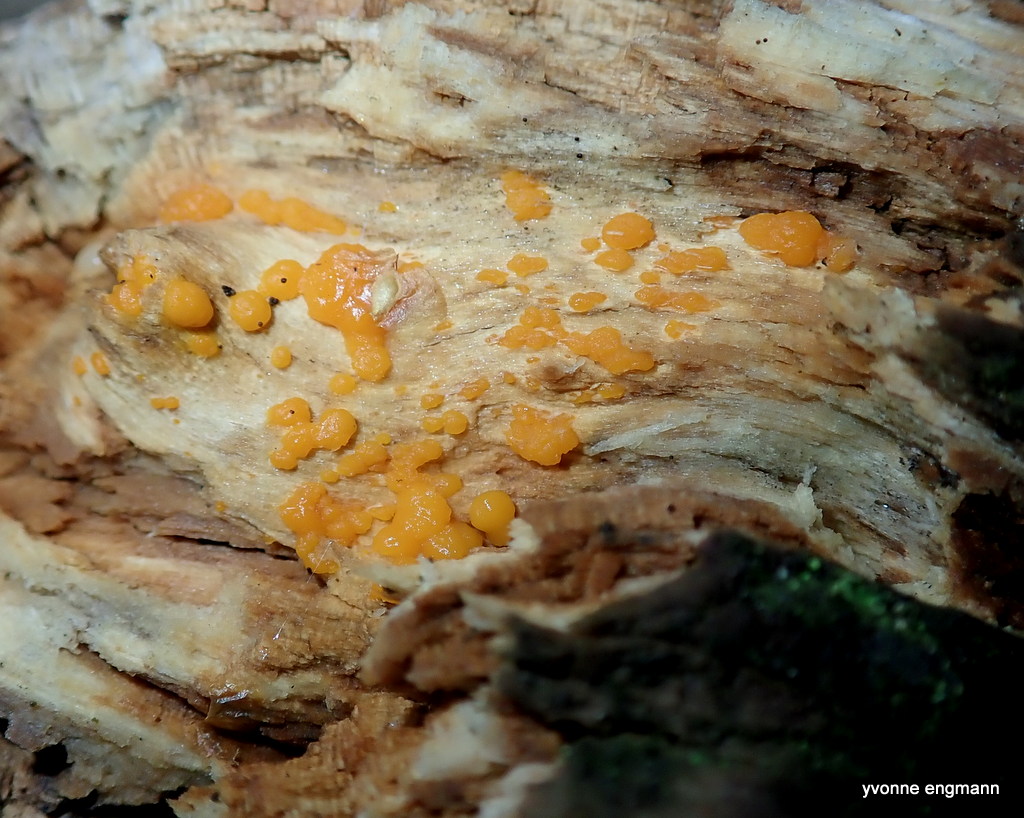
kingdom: Fungi
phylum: Basidiomycota
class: Dacrymycetes
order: Dacrymycetales
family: Dacrymycetaceae
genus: Dacrymyces
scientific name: Dacrymyces stillatus
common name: almindelig tåresvamp
